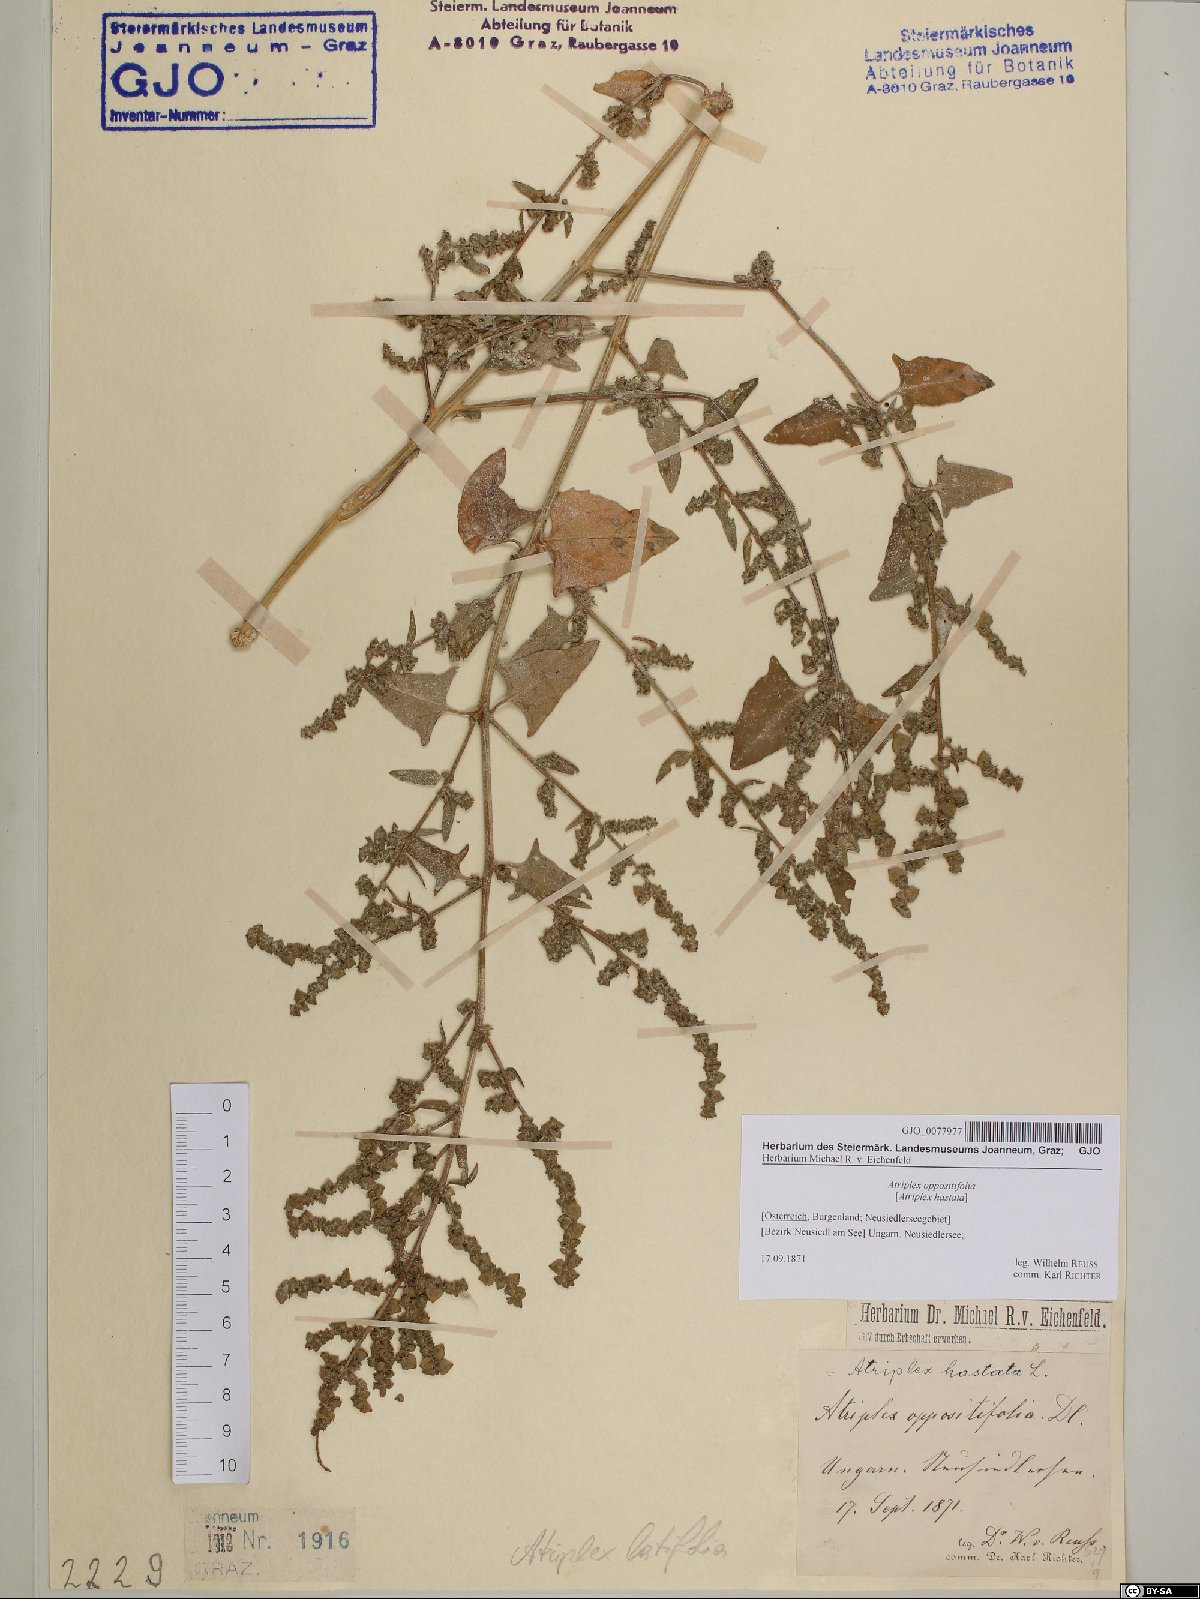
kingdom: Plantae
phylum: Tracheophyta
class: Magnoliopsida
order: Caryophyllales
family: Amaranthaceae
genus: Atriplex
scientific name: Atriplex prostrata
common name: Spear-leaved orache
